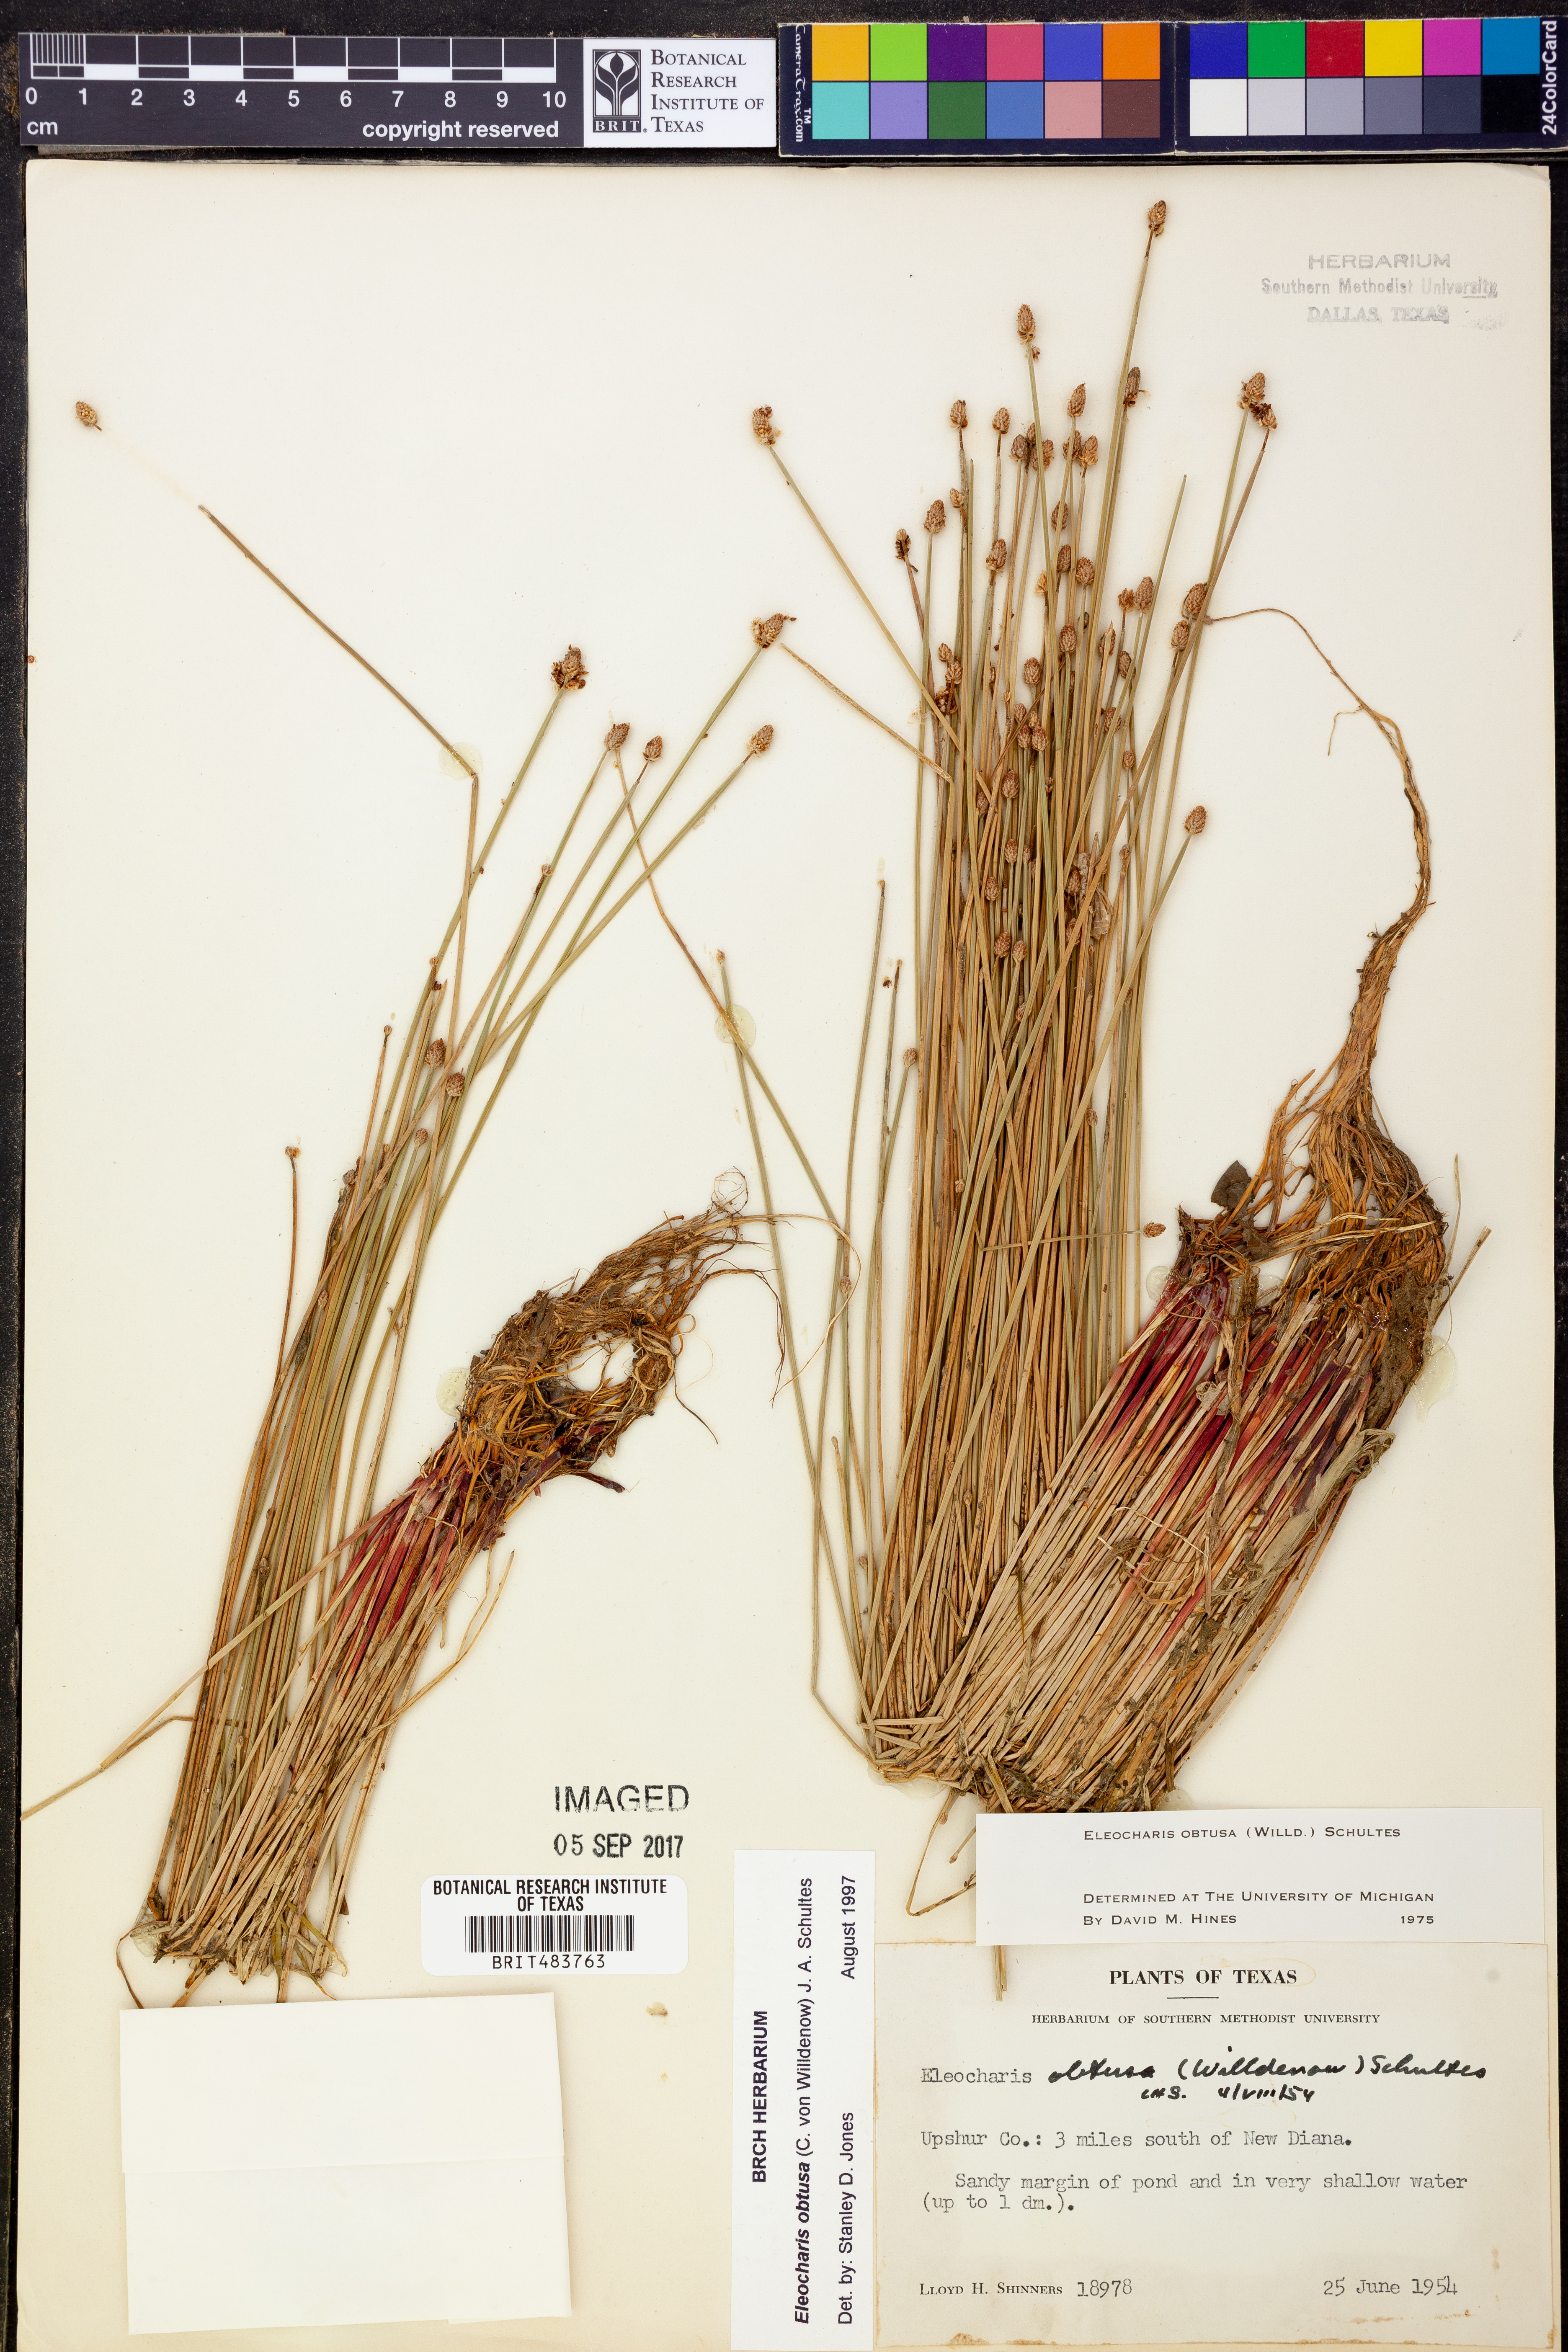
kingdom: Plantae
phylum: Tracheophyta
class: Liliopsida
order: Poales
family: Cyperaceae
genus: Eleocharis
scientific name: Eleocharis obtusa
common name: Blunt spikerush
